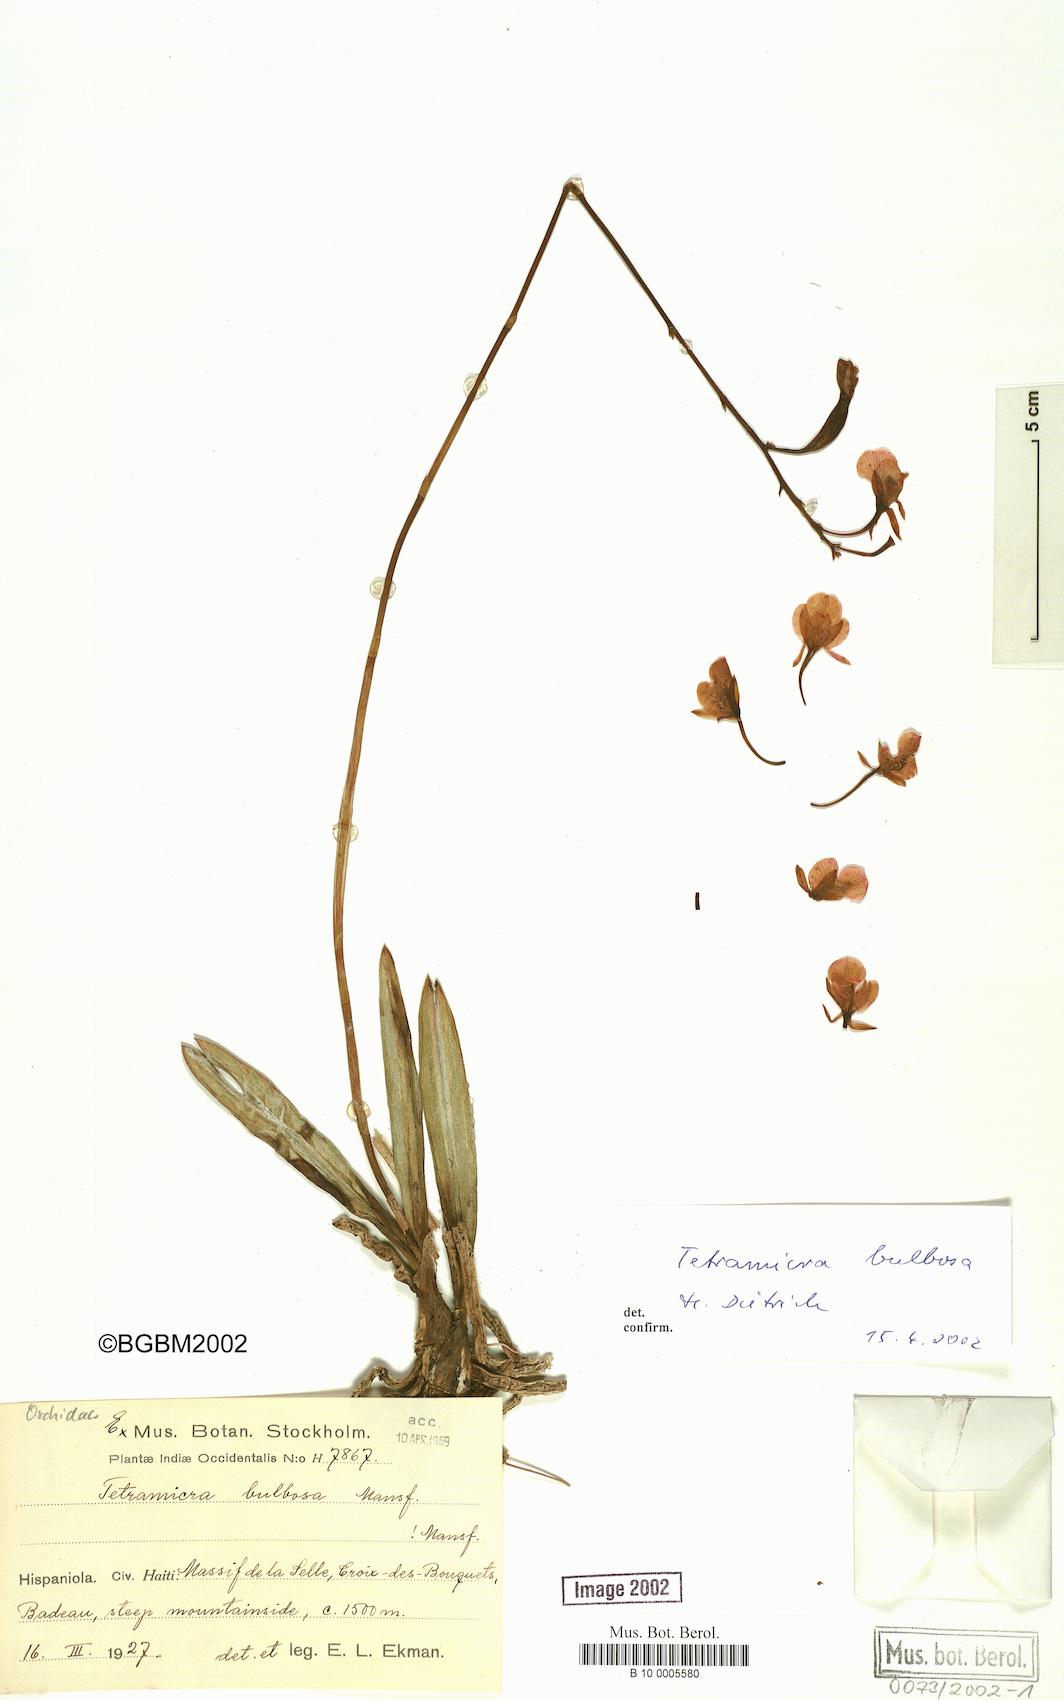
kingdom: Plantae
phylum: Tracheophyta
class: Liliopsida
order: Asparagales
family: Orchidaceae
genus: Tetramicra
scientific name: Tetramicra bulbosa
